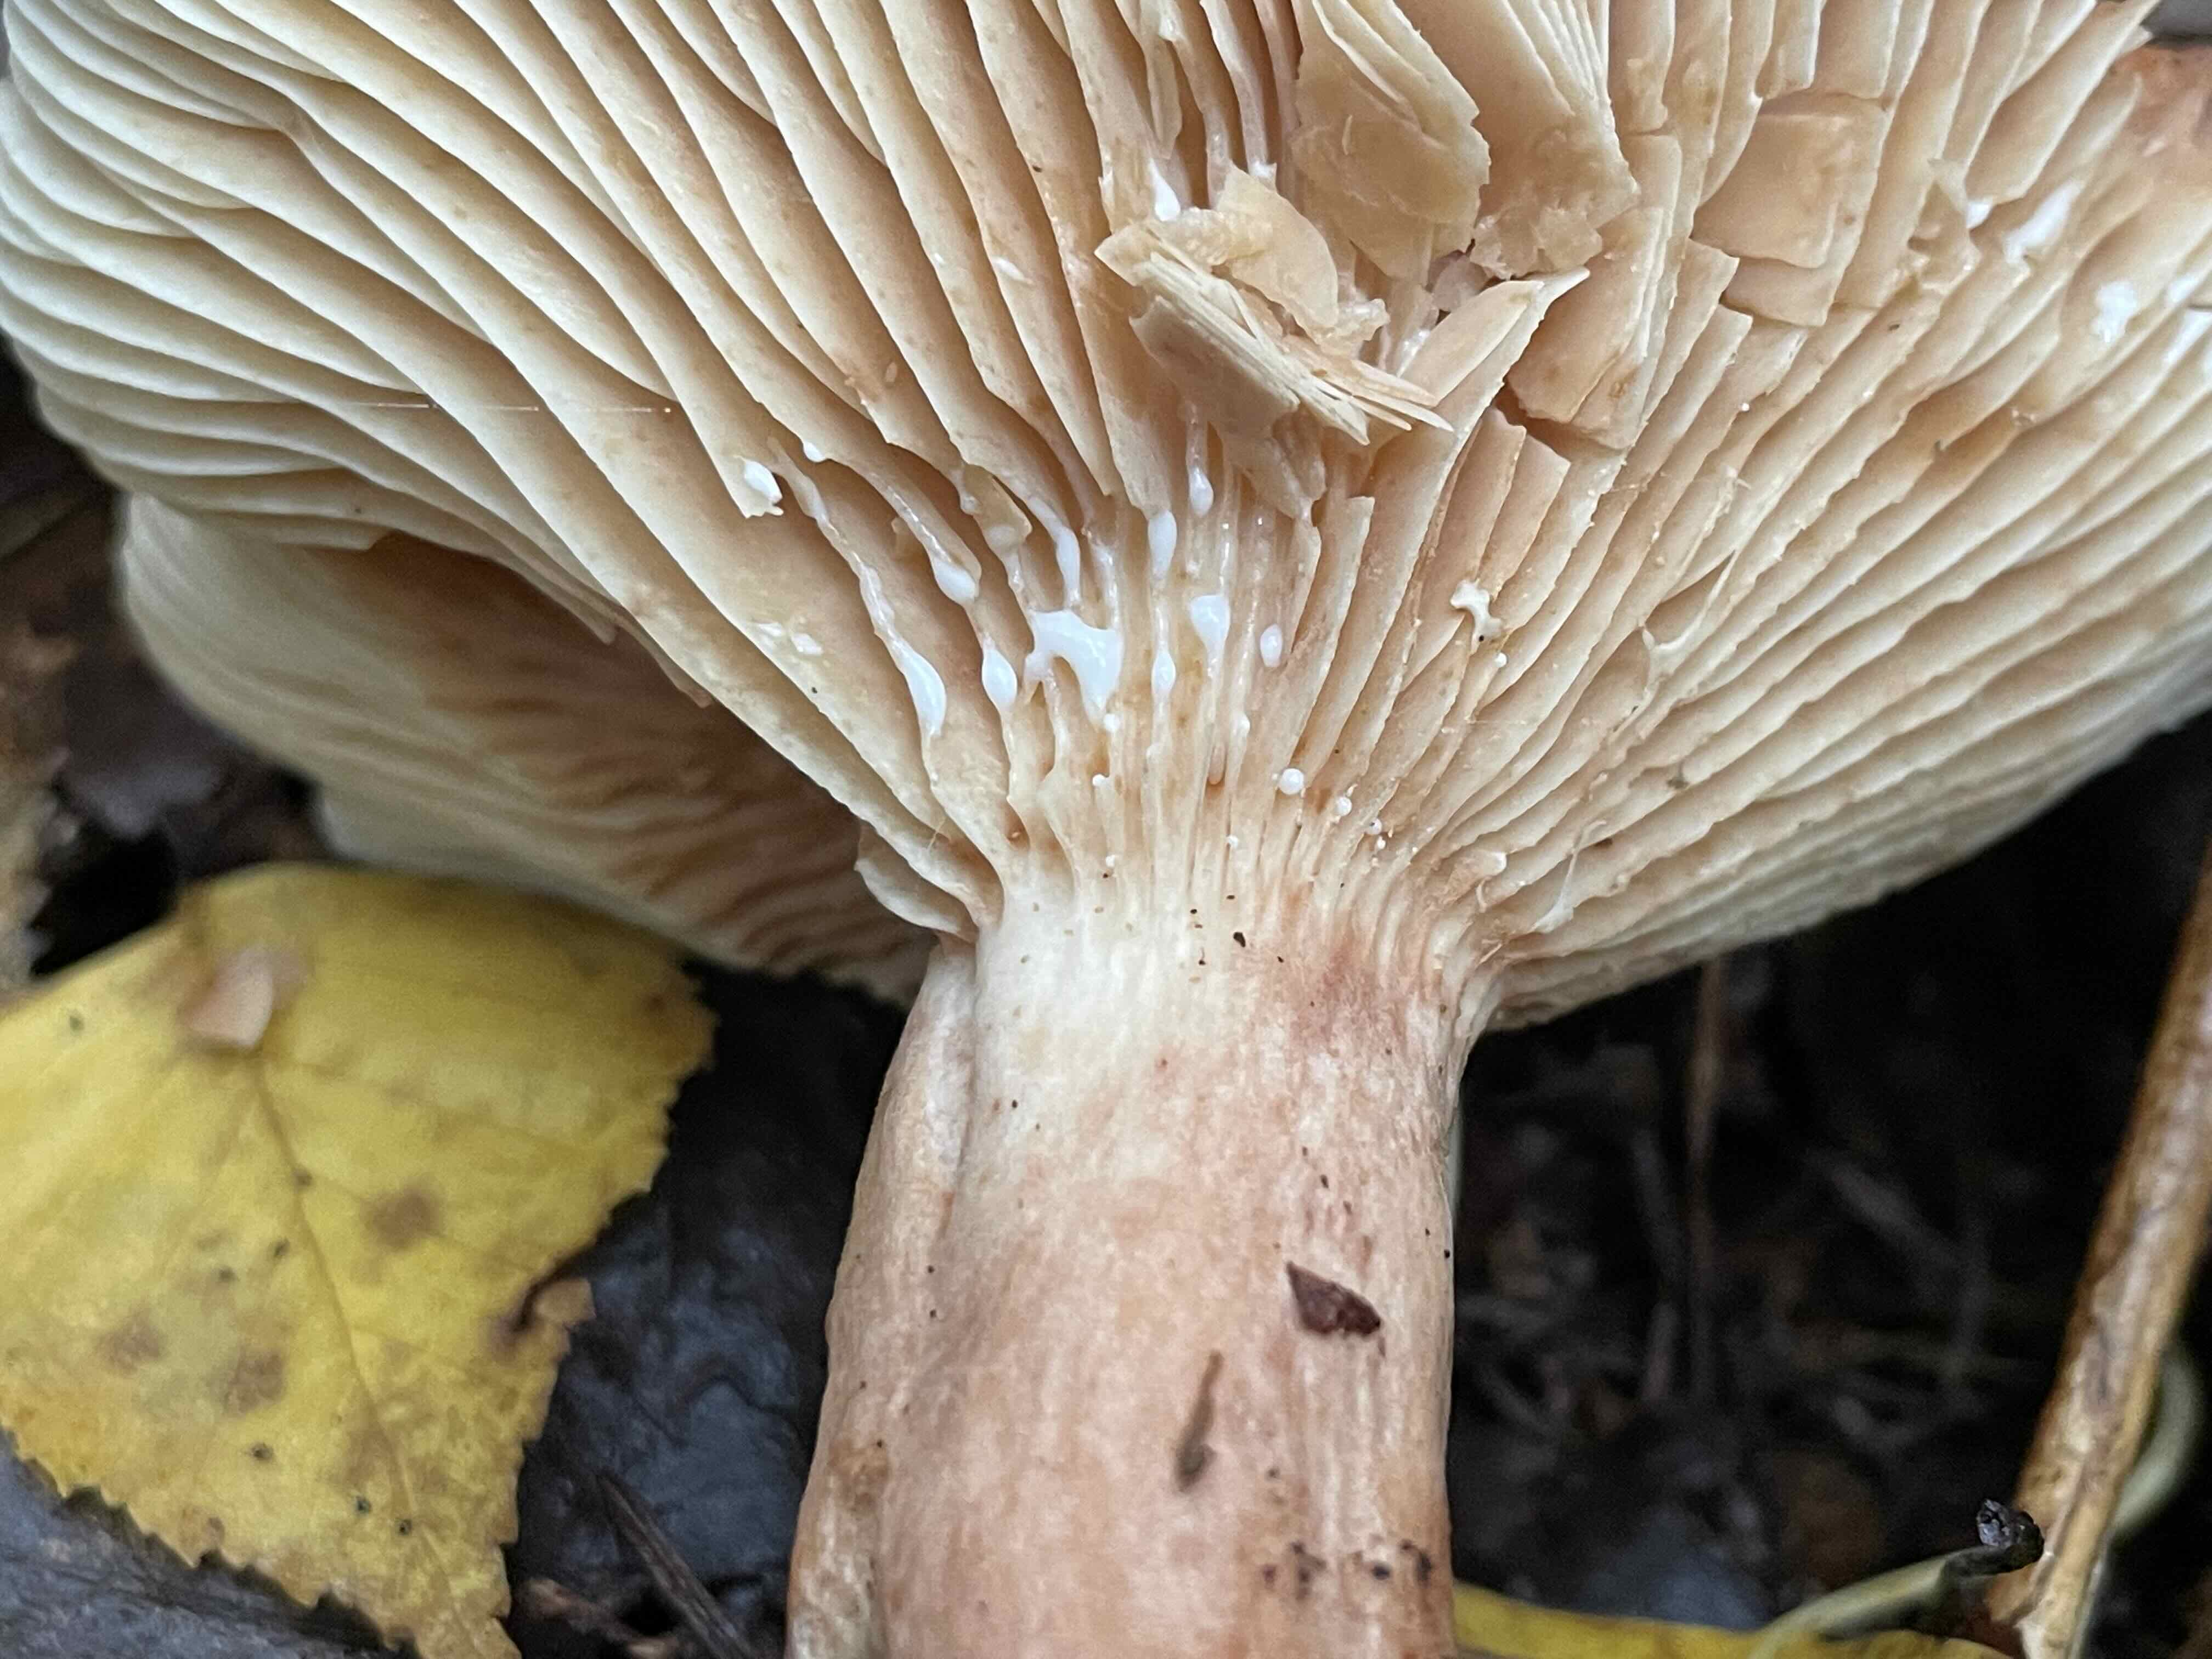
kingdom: Fungi
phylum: Basidiomycota
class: Agaricomycetes
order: Russulales
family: Russulaceae
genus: Lactarius
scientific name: Lactarius rufus
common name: rødbrun mælkehat
